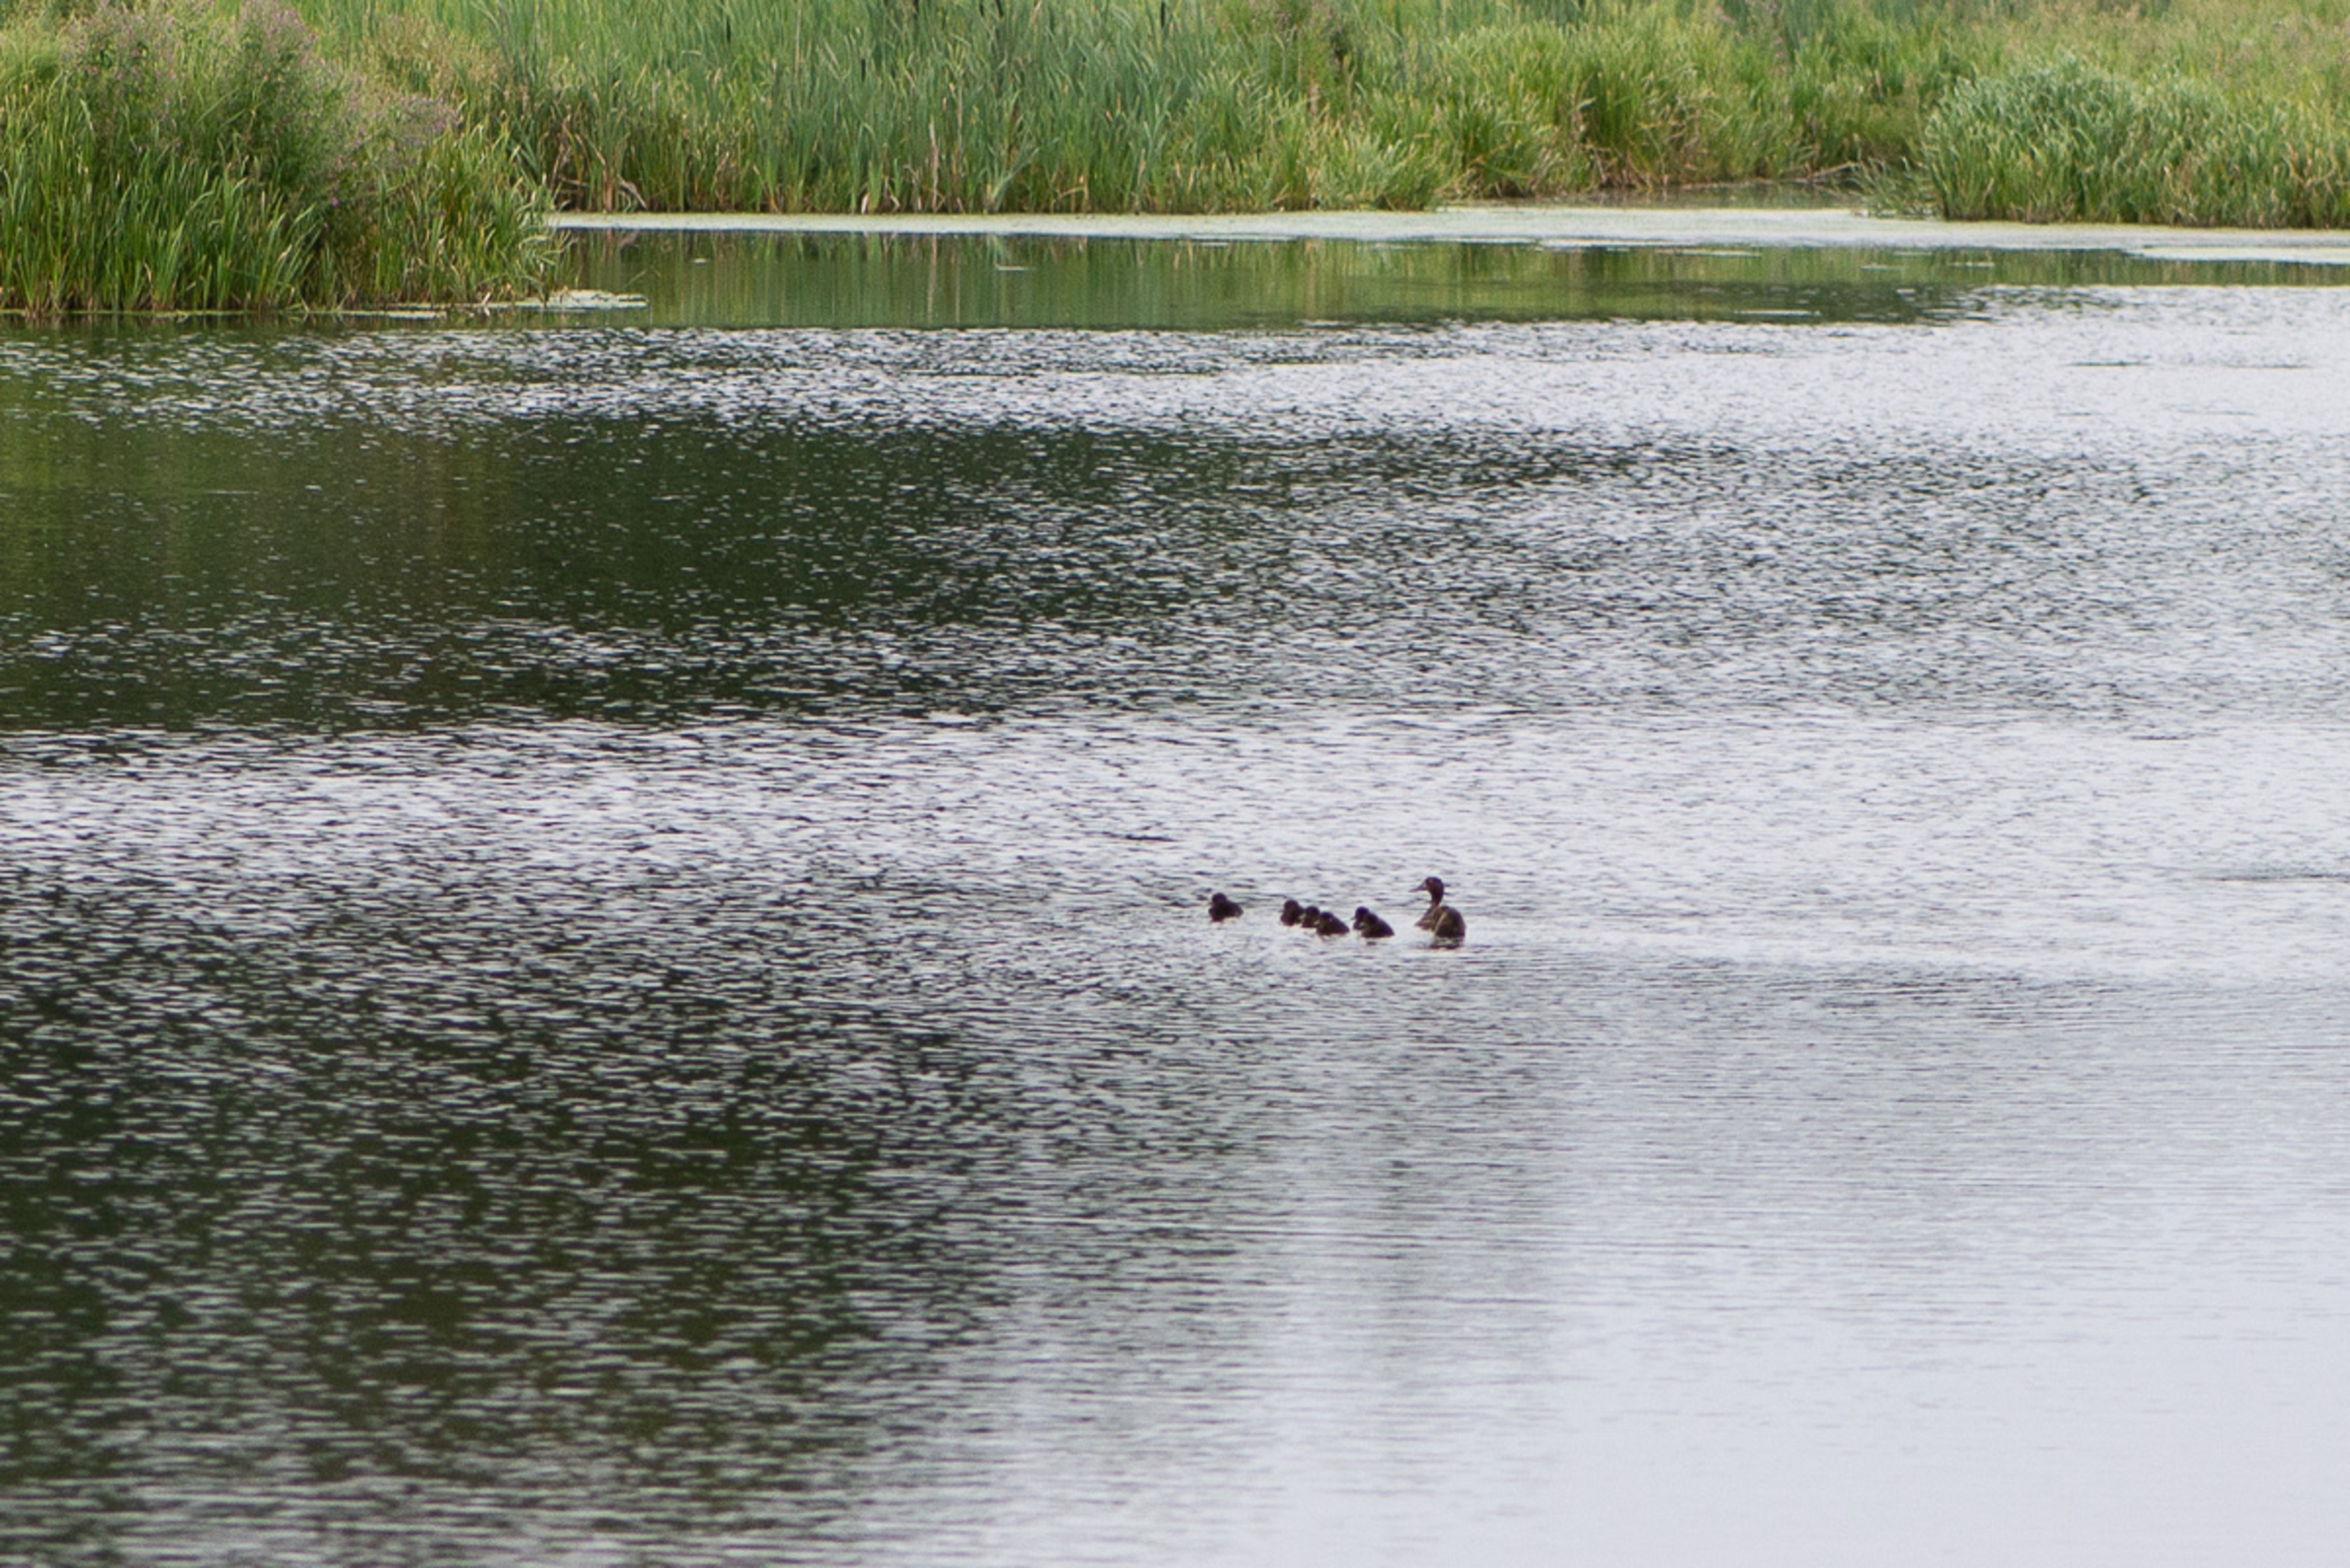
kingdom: Animalia
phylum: Chordata
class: Aves
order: Anseriformes
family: Anatidae
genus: Aythya
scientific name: Aythya fuligula
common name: Troldand
